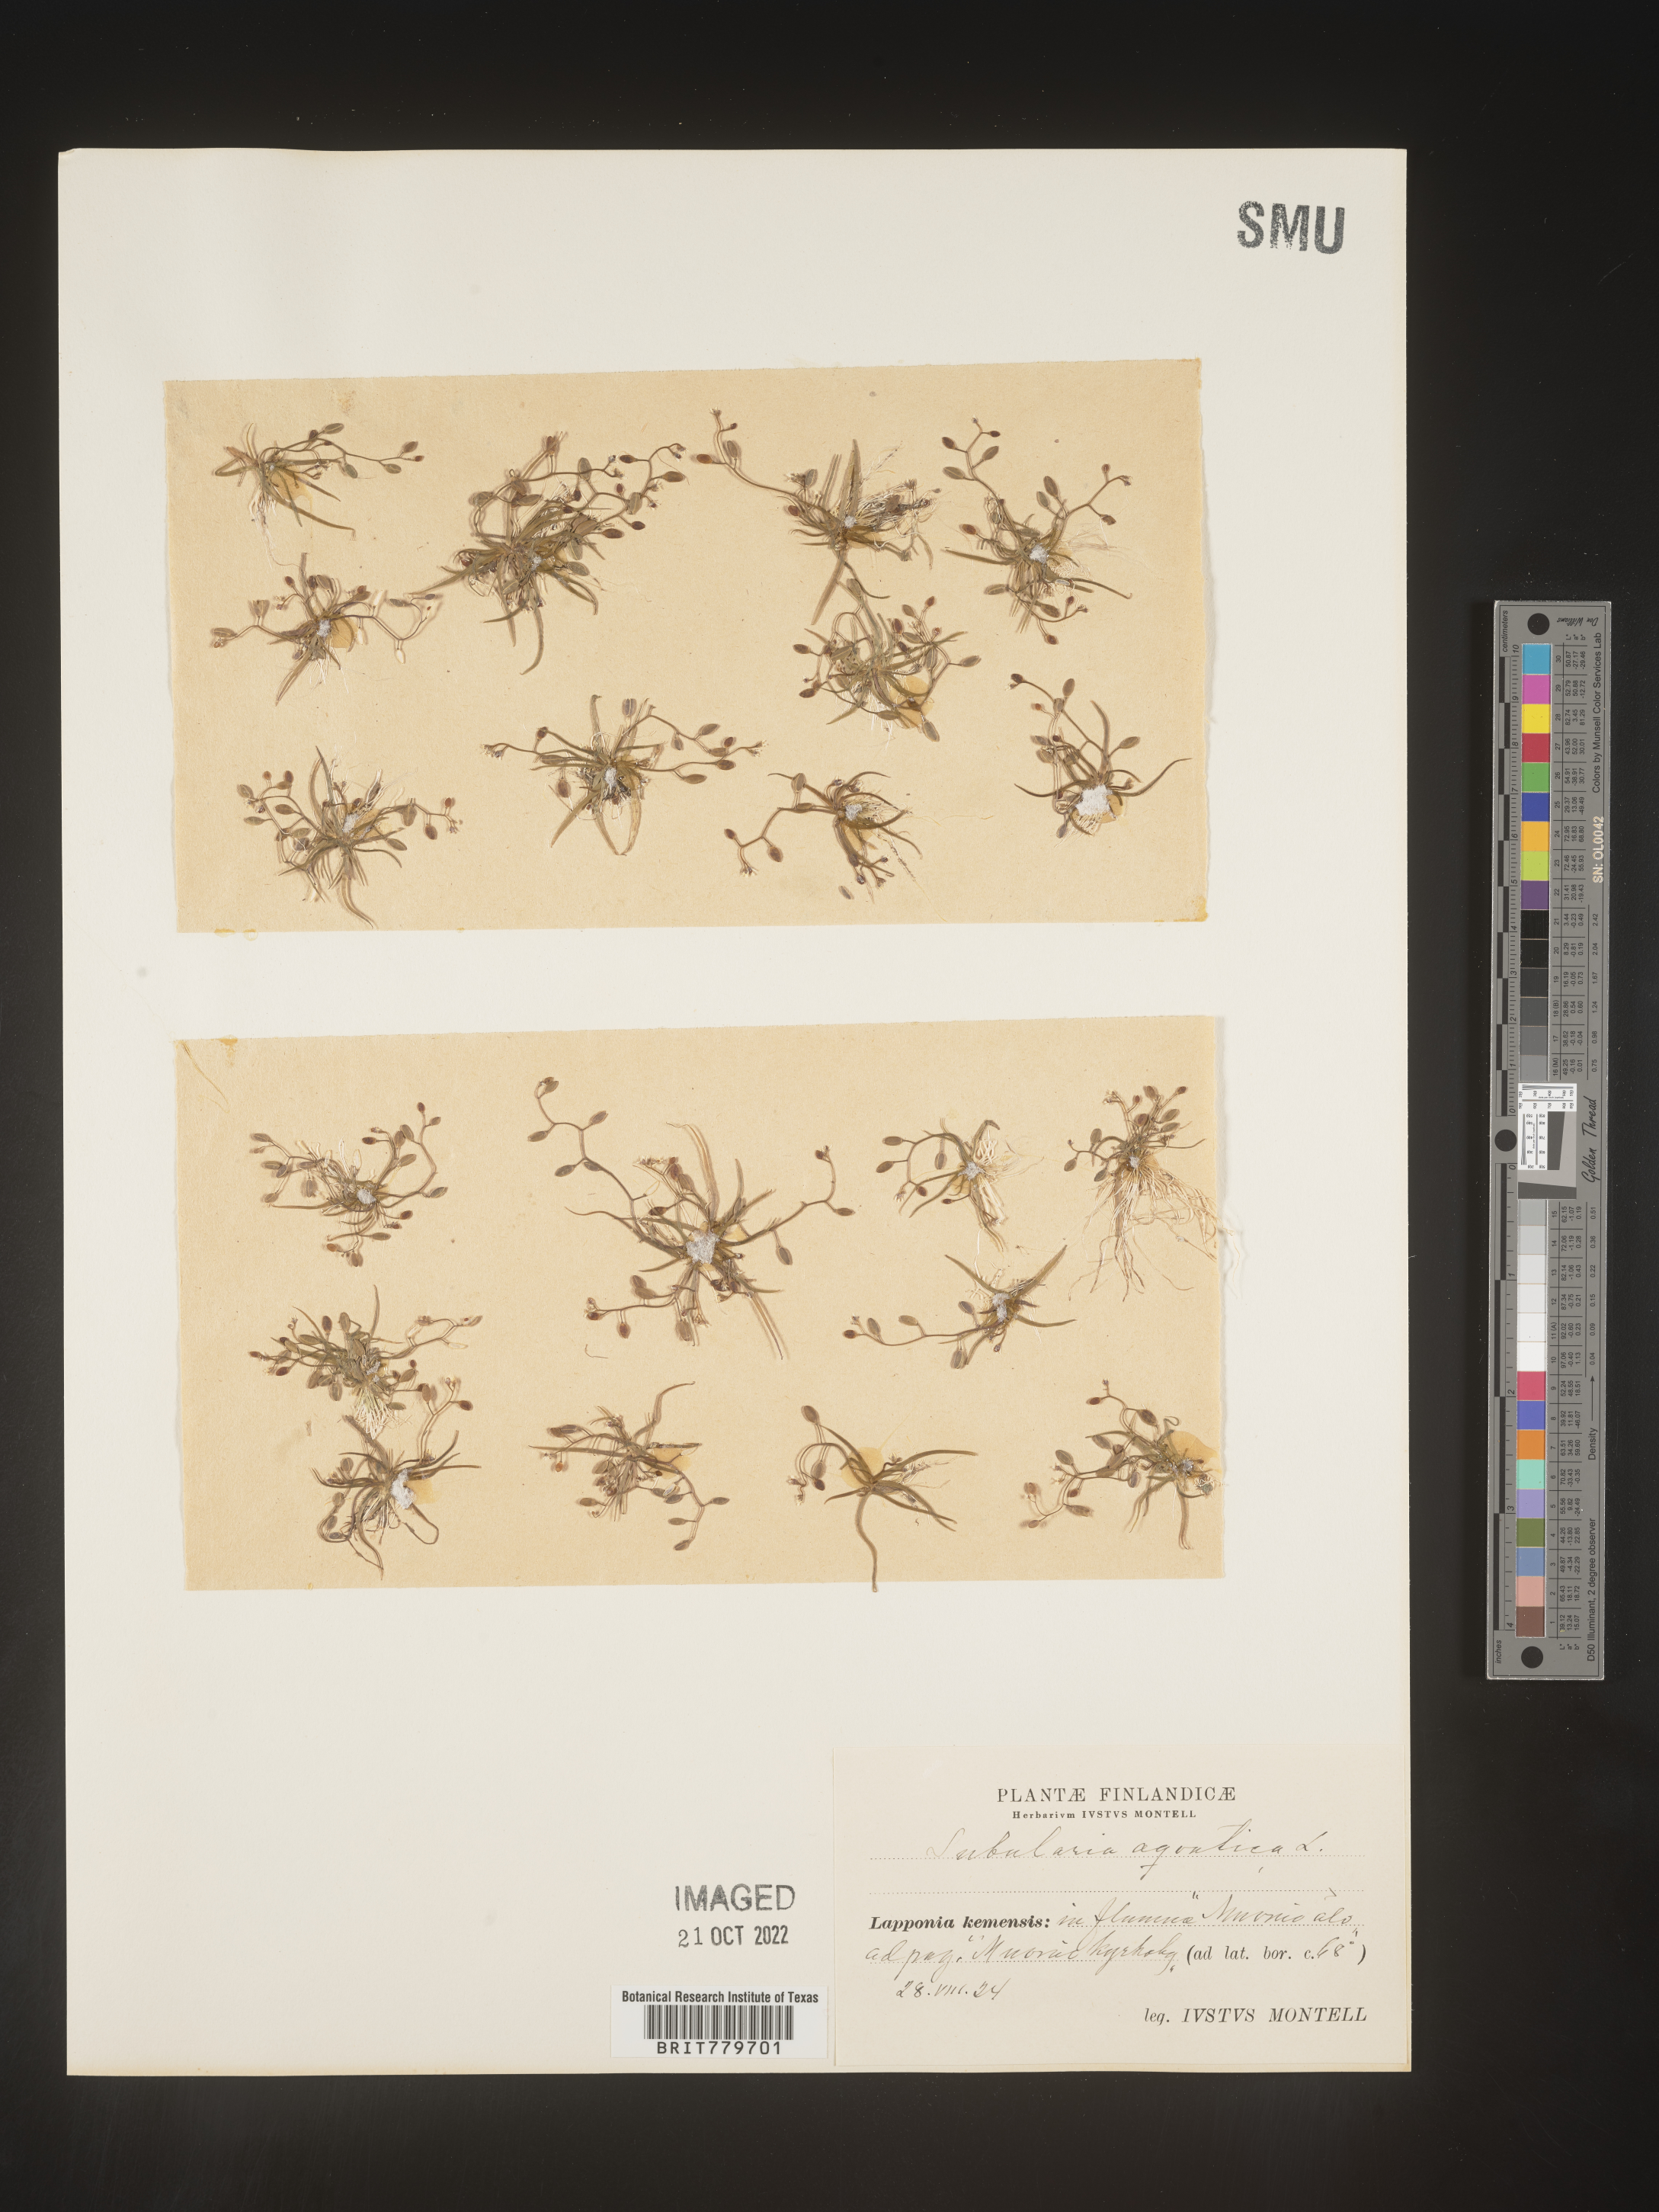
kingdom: Plantae
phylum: Tracheophyta
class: Magnoliopsida
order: Brassicales
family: Brassicaceae
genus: Subularia
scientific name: Subularia
